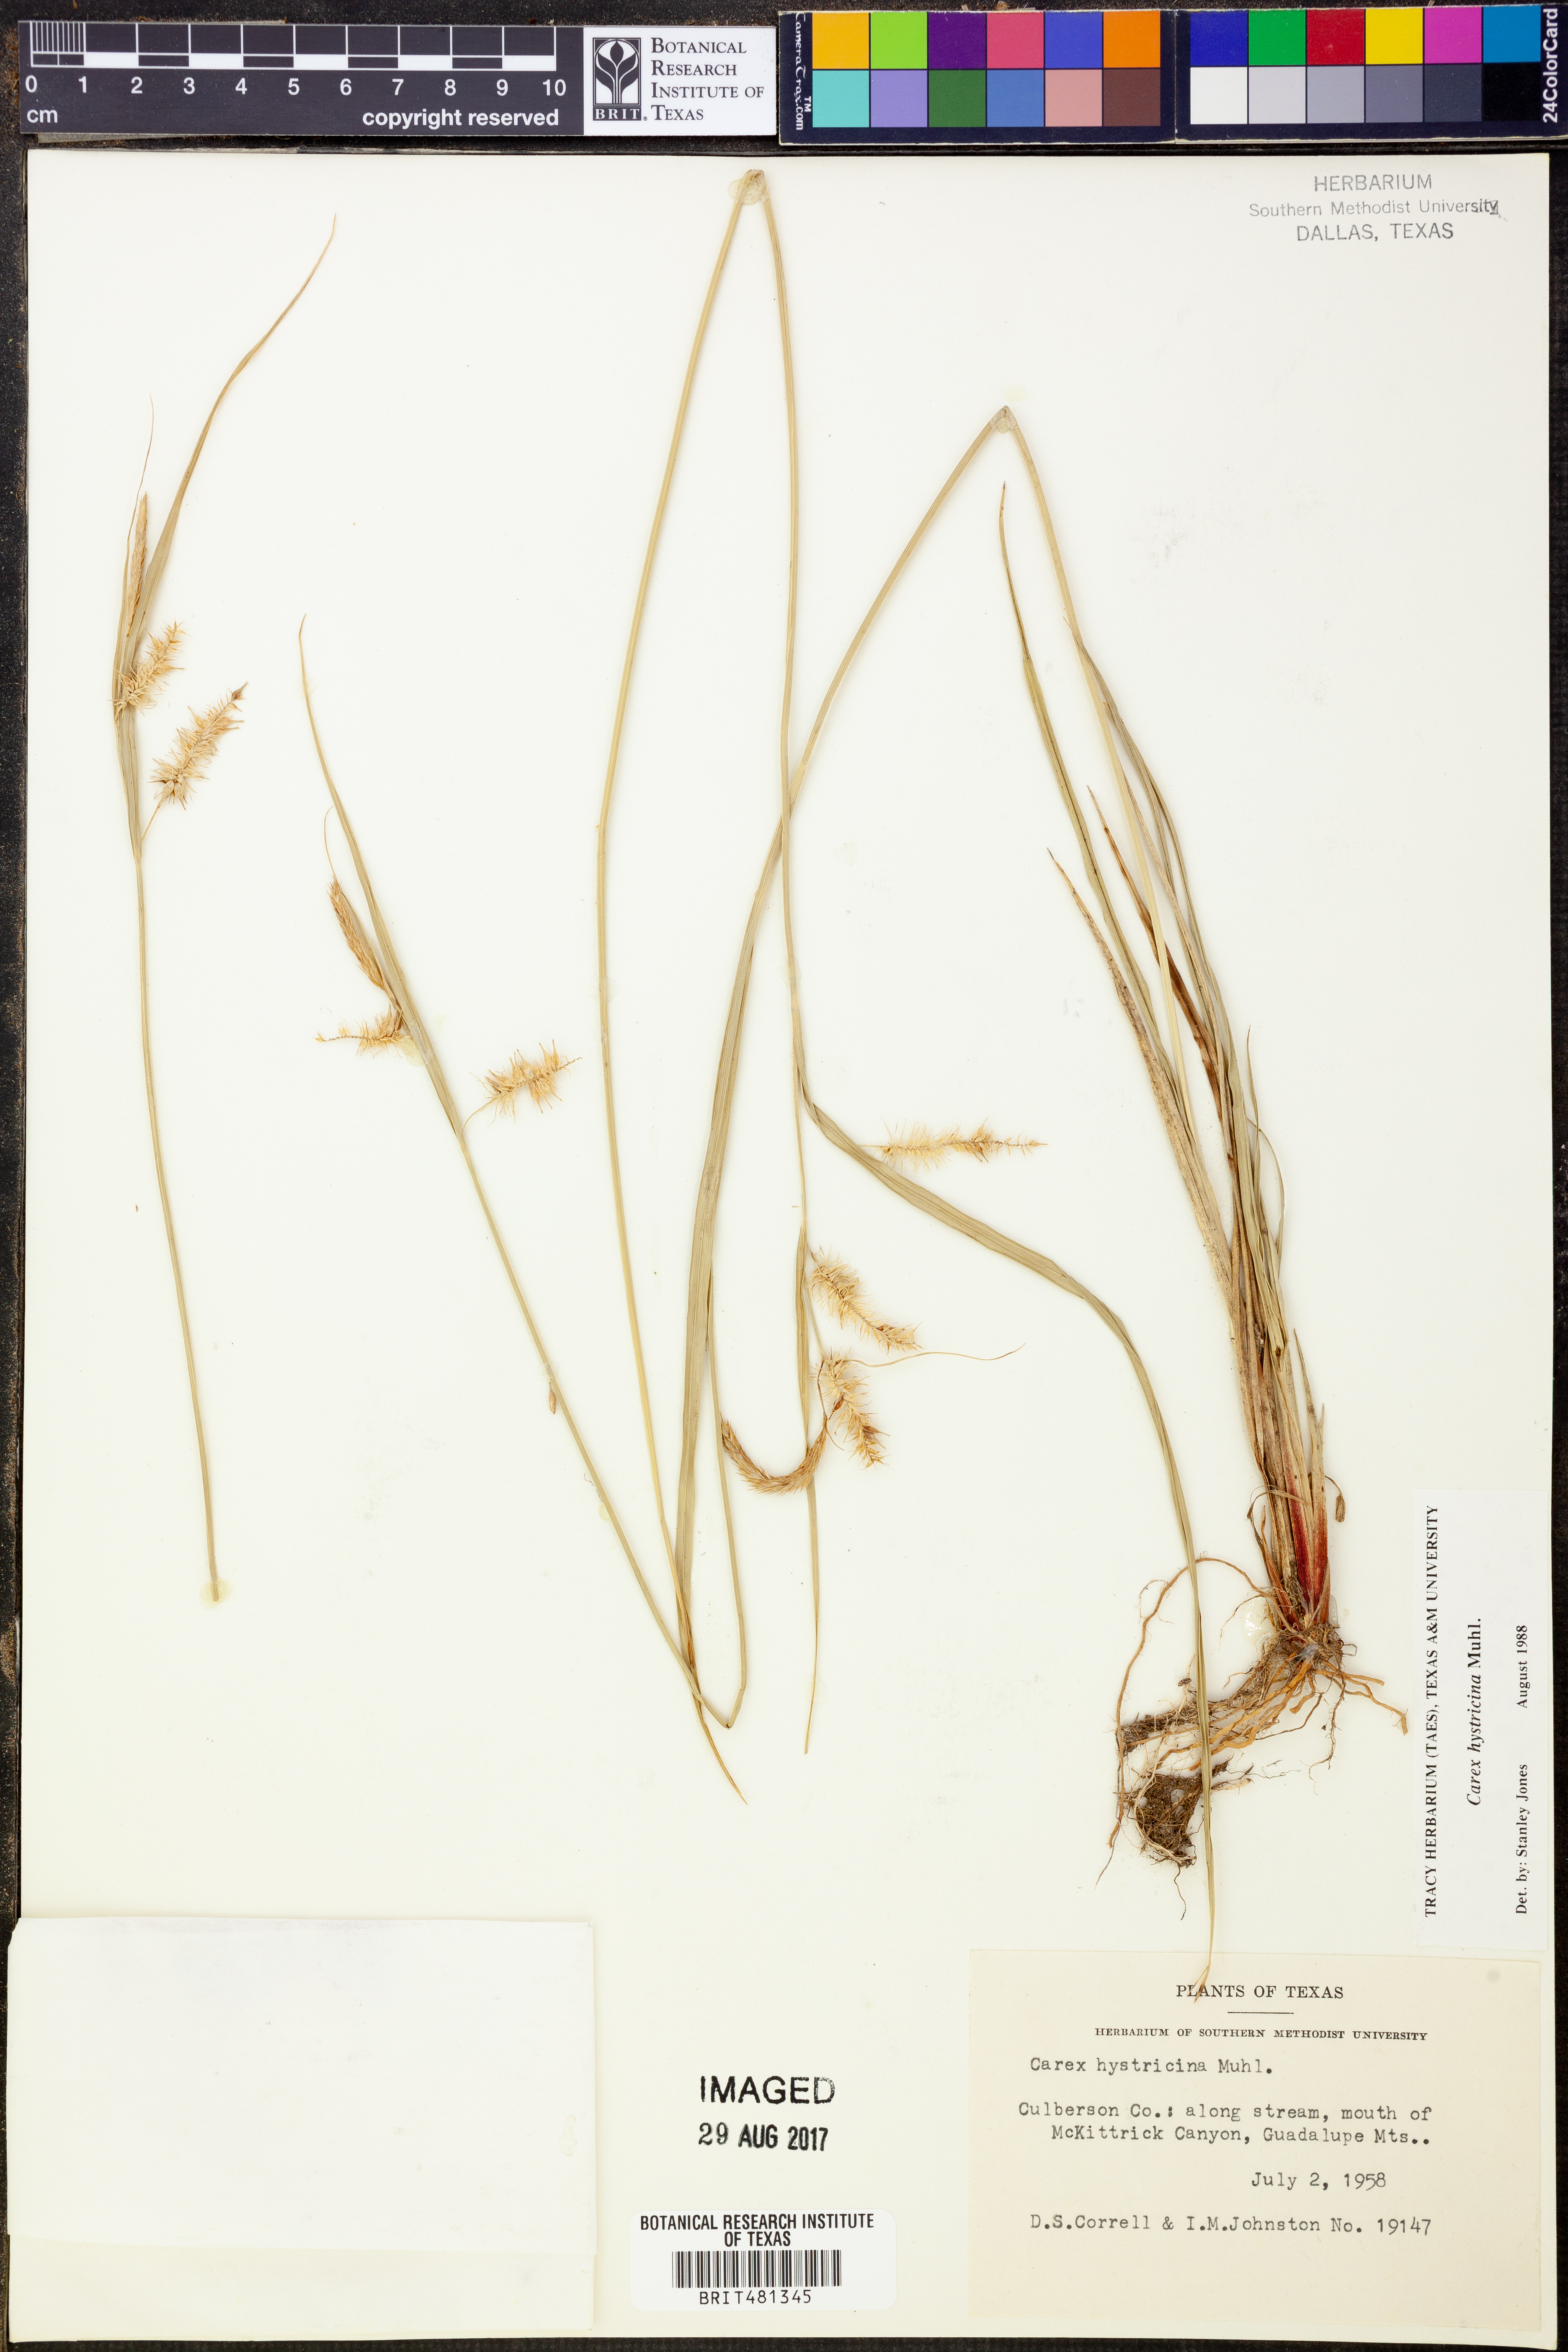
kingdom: Plantae
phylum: Tracheophyta
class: Liliopsida
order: Poales
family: Cyperaceae
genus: Carex
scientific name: Carex hystericina
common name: Bottlebrush sedge
